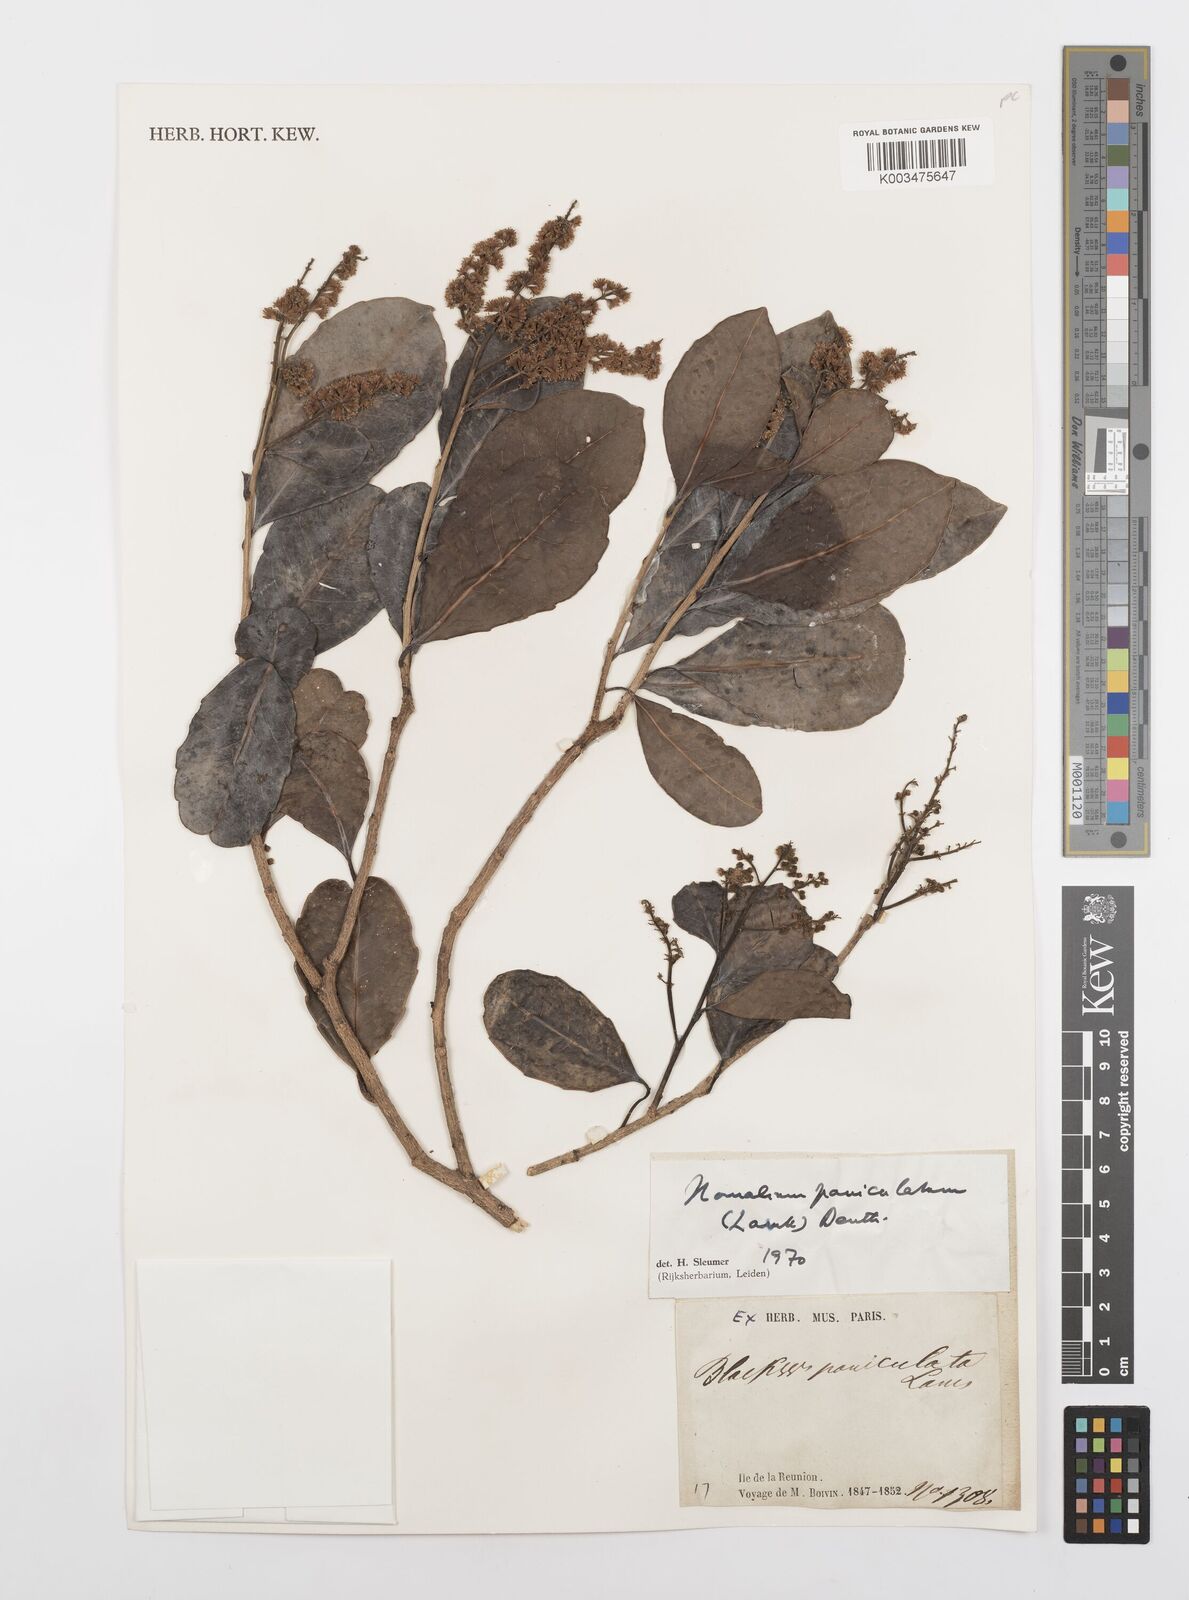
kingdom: Plantae
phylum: Tracheophyta
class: Magnoliopsida
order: Malpighiales
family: Salicaceae
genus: Homalium
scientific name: Homalium erianthum
